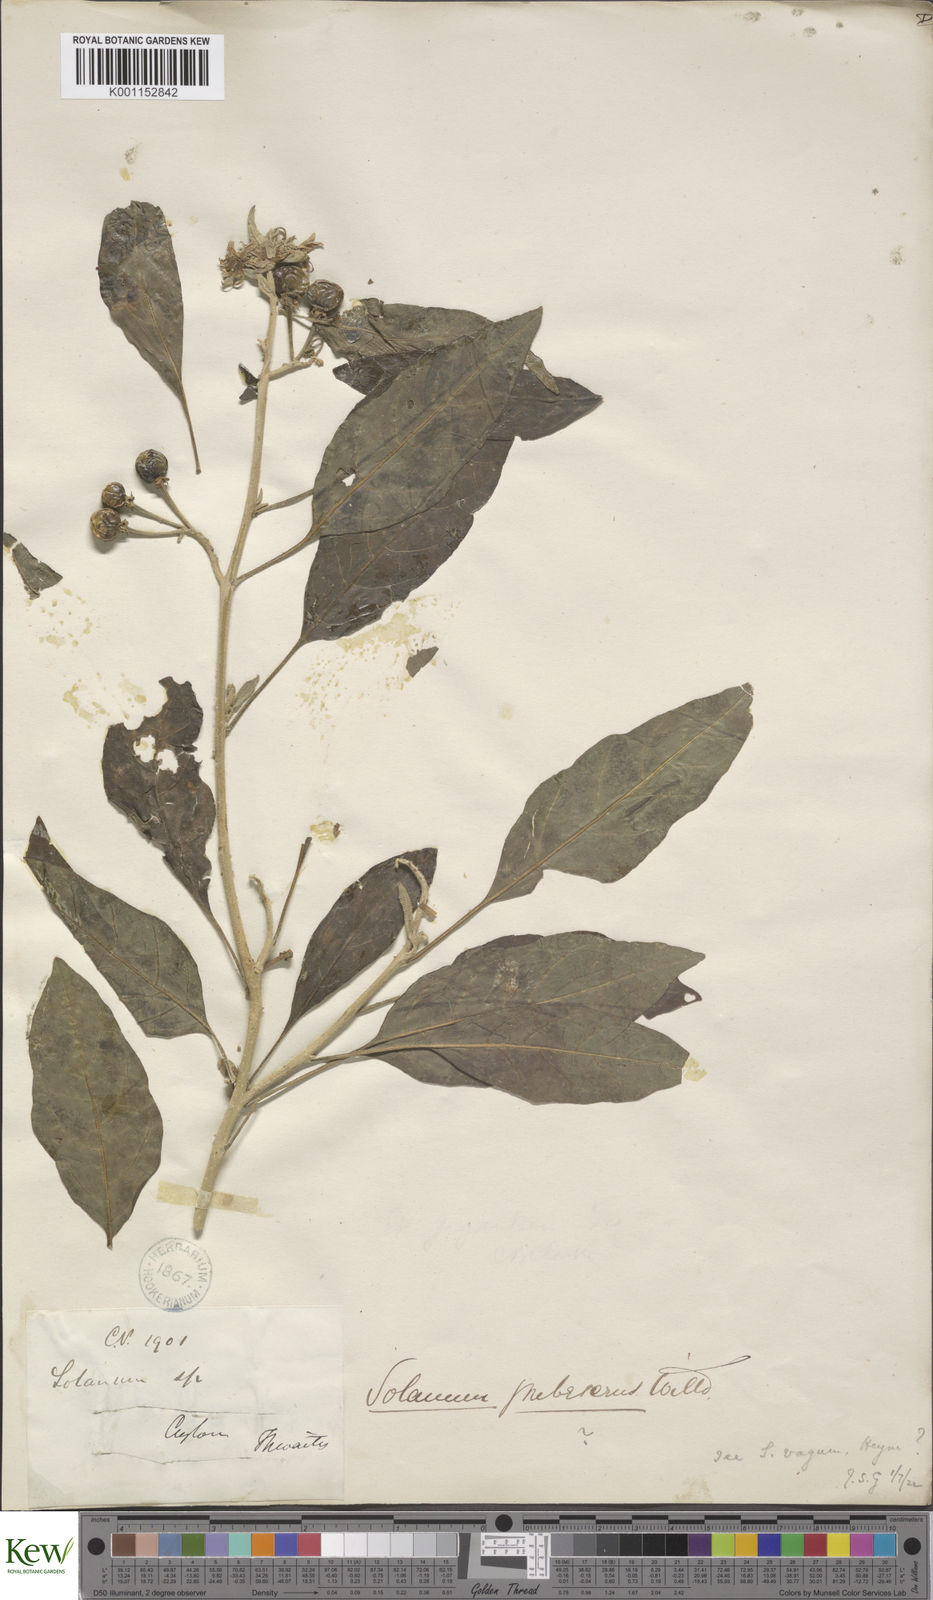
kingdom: Plantae
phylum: Tracheophyta
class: Magnoliopsida
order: Solanales
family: Solanaceae
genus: Solanum
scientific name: Solanum
